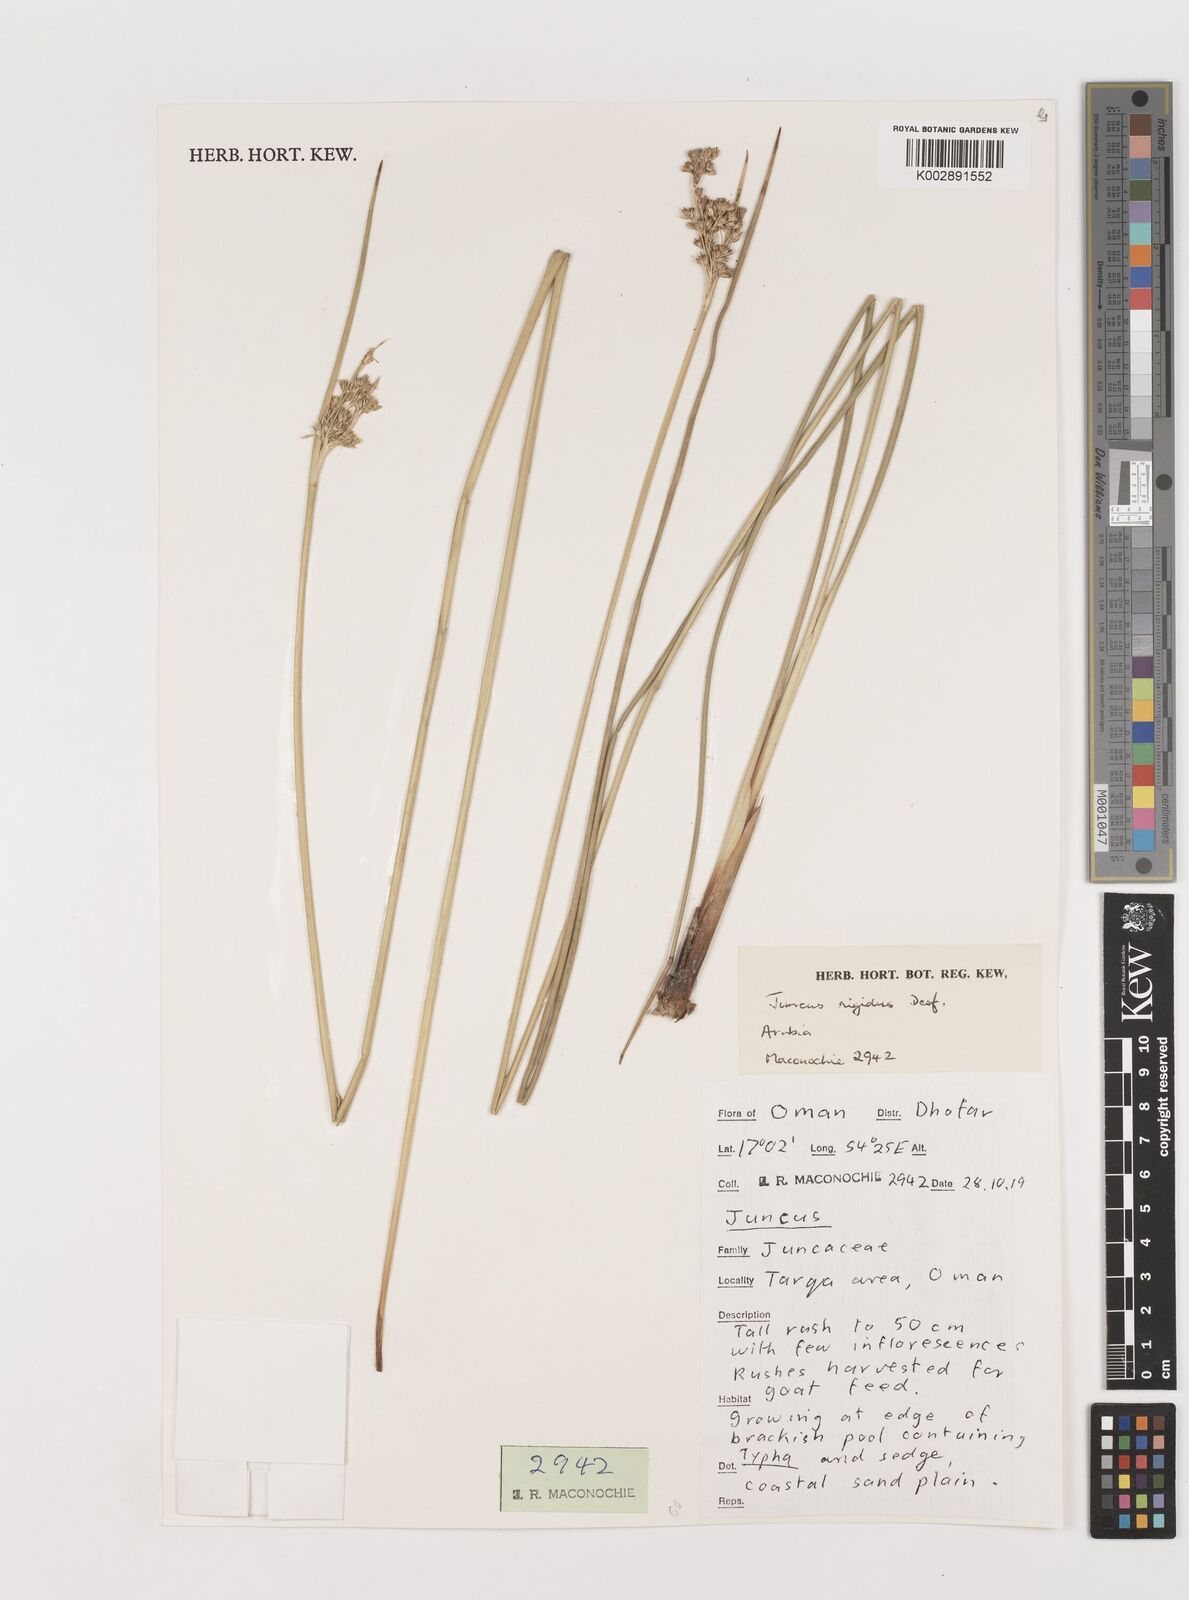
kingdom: Plantae
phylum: Tracheophyta
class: Liliopsida
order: Poales
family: Juncaceae
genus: Juncus
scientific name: Juncus rigidus
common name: Hard sea rush
